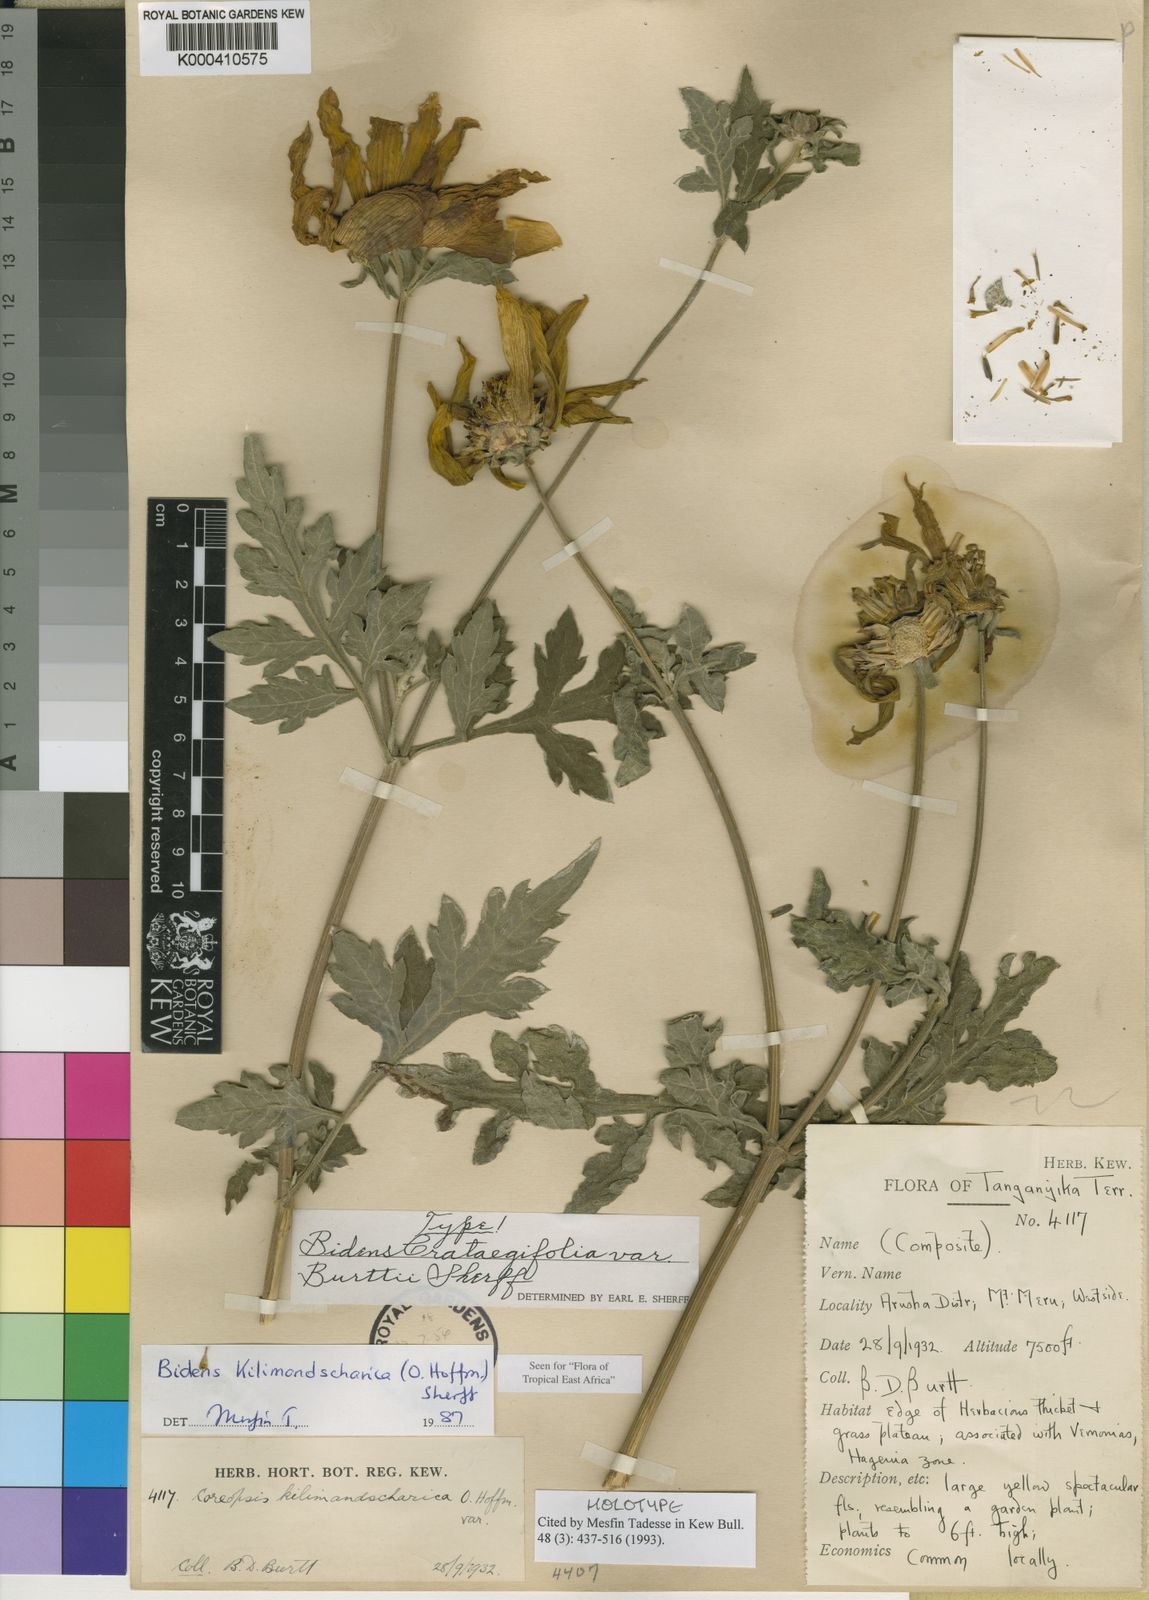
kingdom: Plantae
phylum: Tracheophyta
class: Magnoliopsida
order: Asterales
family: Asteraceae
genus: Bidens
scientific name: Bidens kilimandscharica
